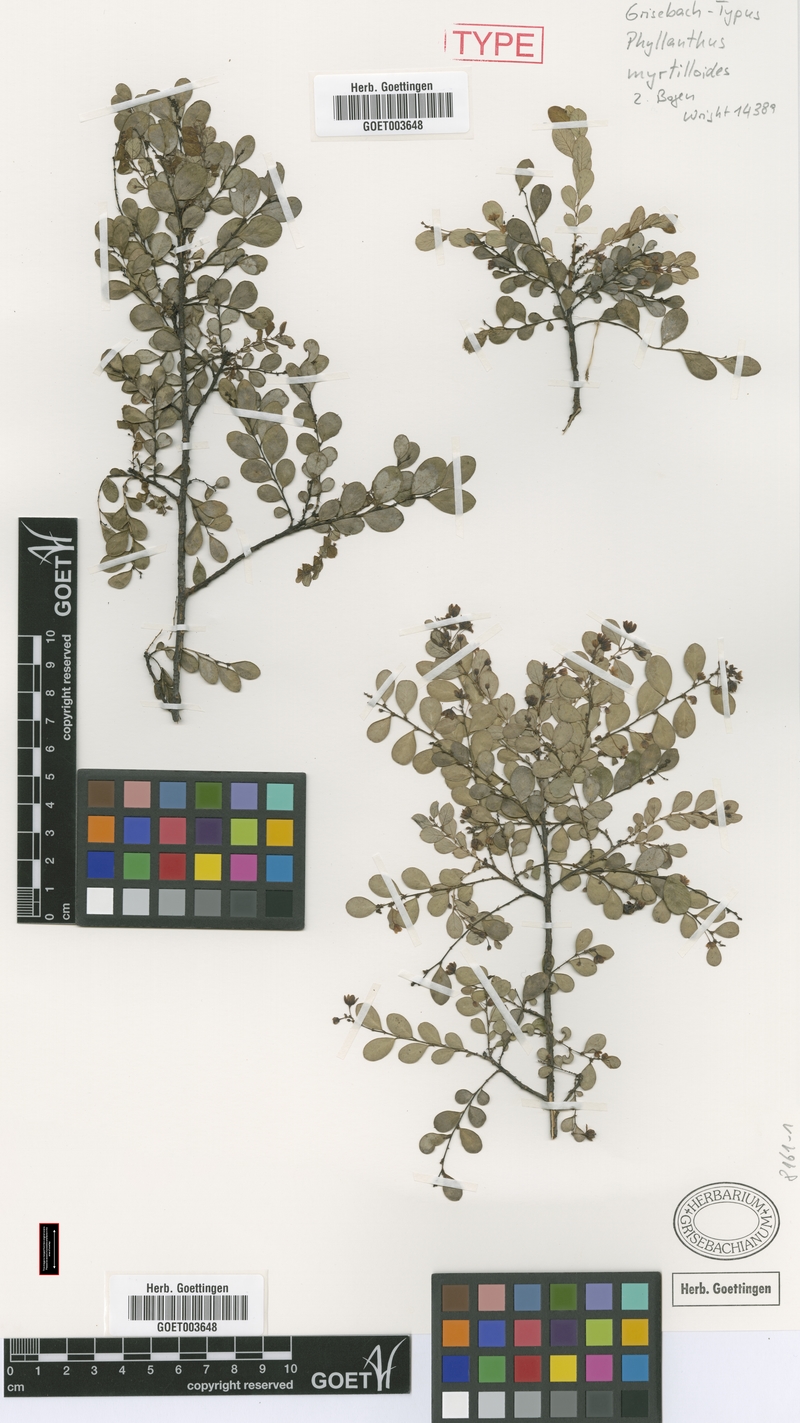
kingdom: Plantae
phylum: Tracheophyta
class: Magnoliopsida
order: Malpighiales
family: Phyllanthaceae
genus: Phyllanthus
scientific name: Phyllanthus myrtilloides
